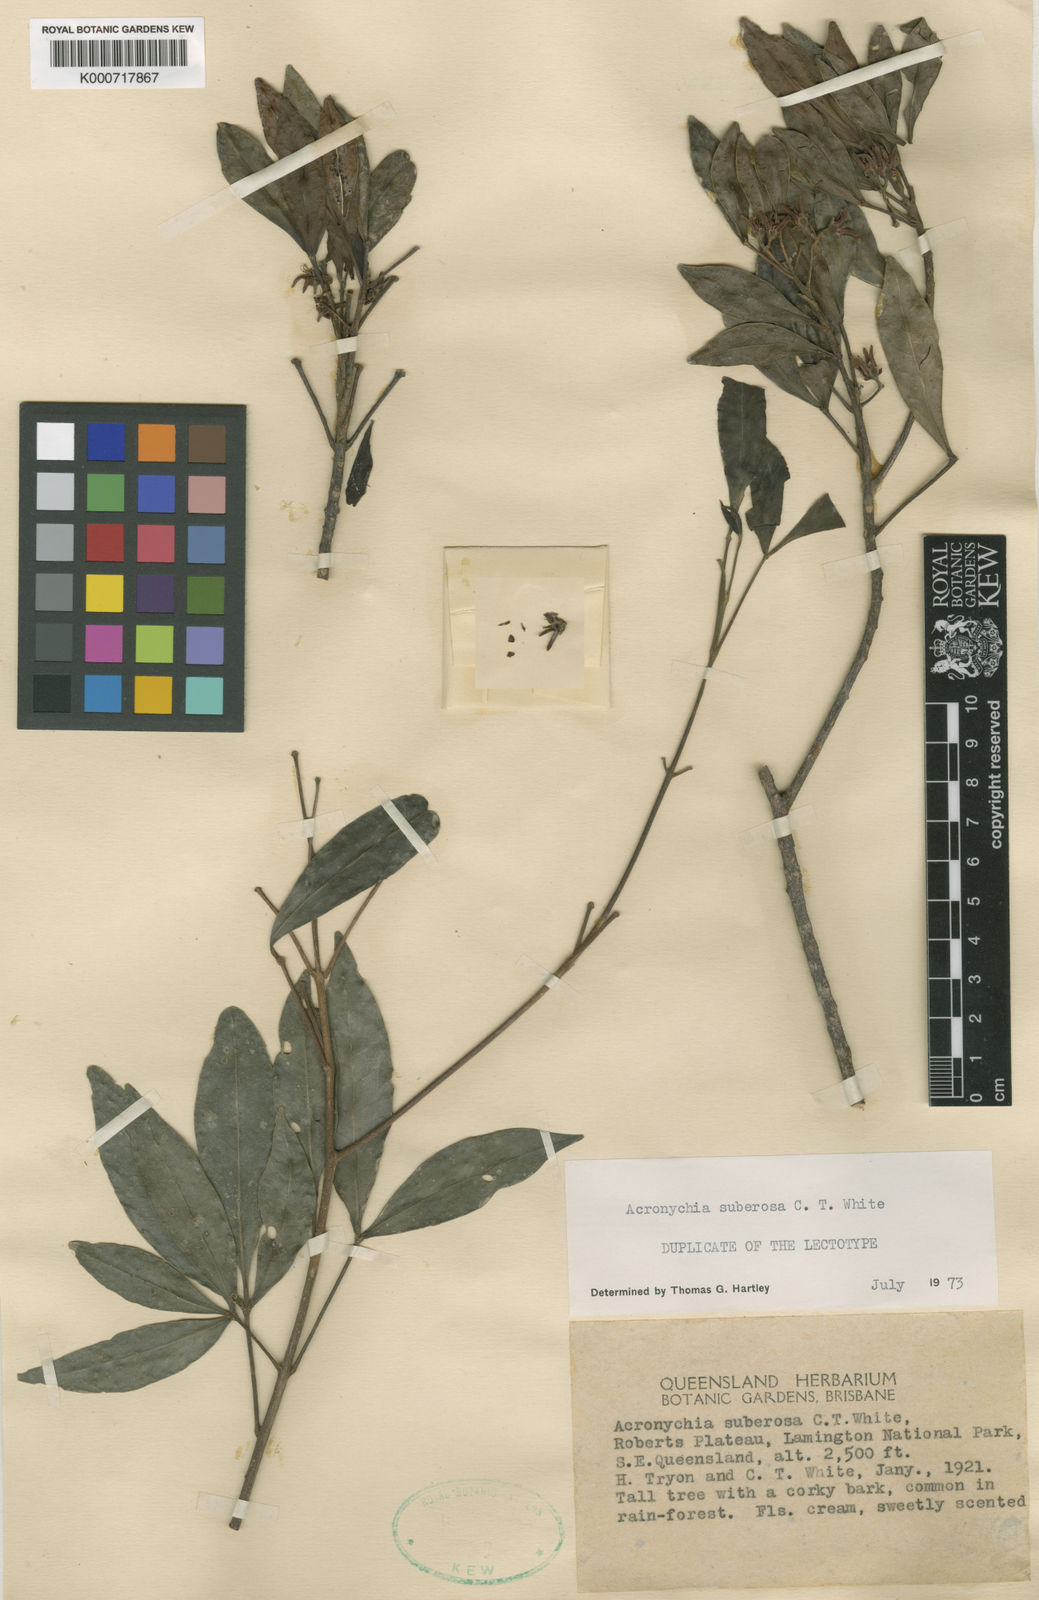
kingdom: Plantae
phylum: Tracheophyta
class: Magnoliopsida
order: Sapindales
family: Rutaceae
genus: Acronychia
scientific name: Acronychia suberosa
